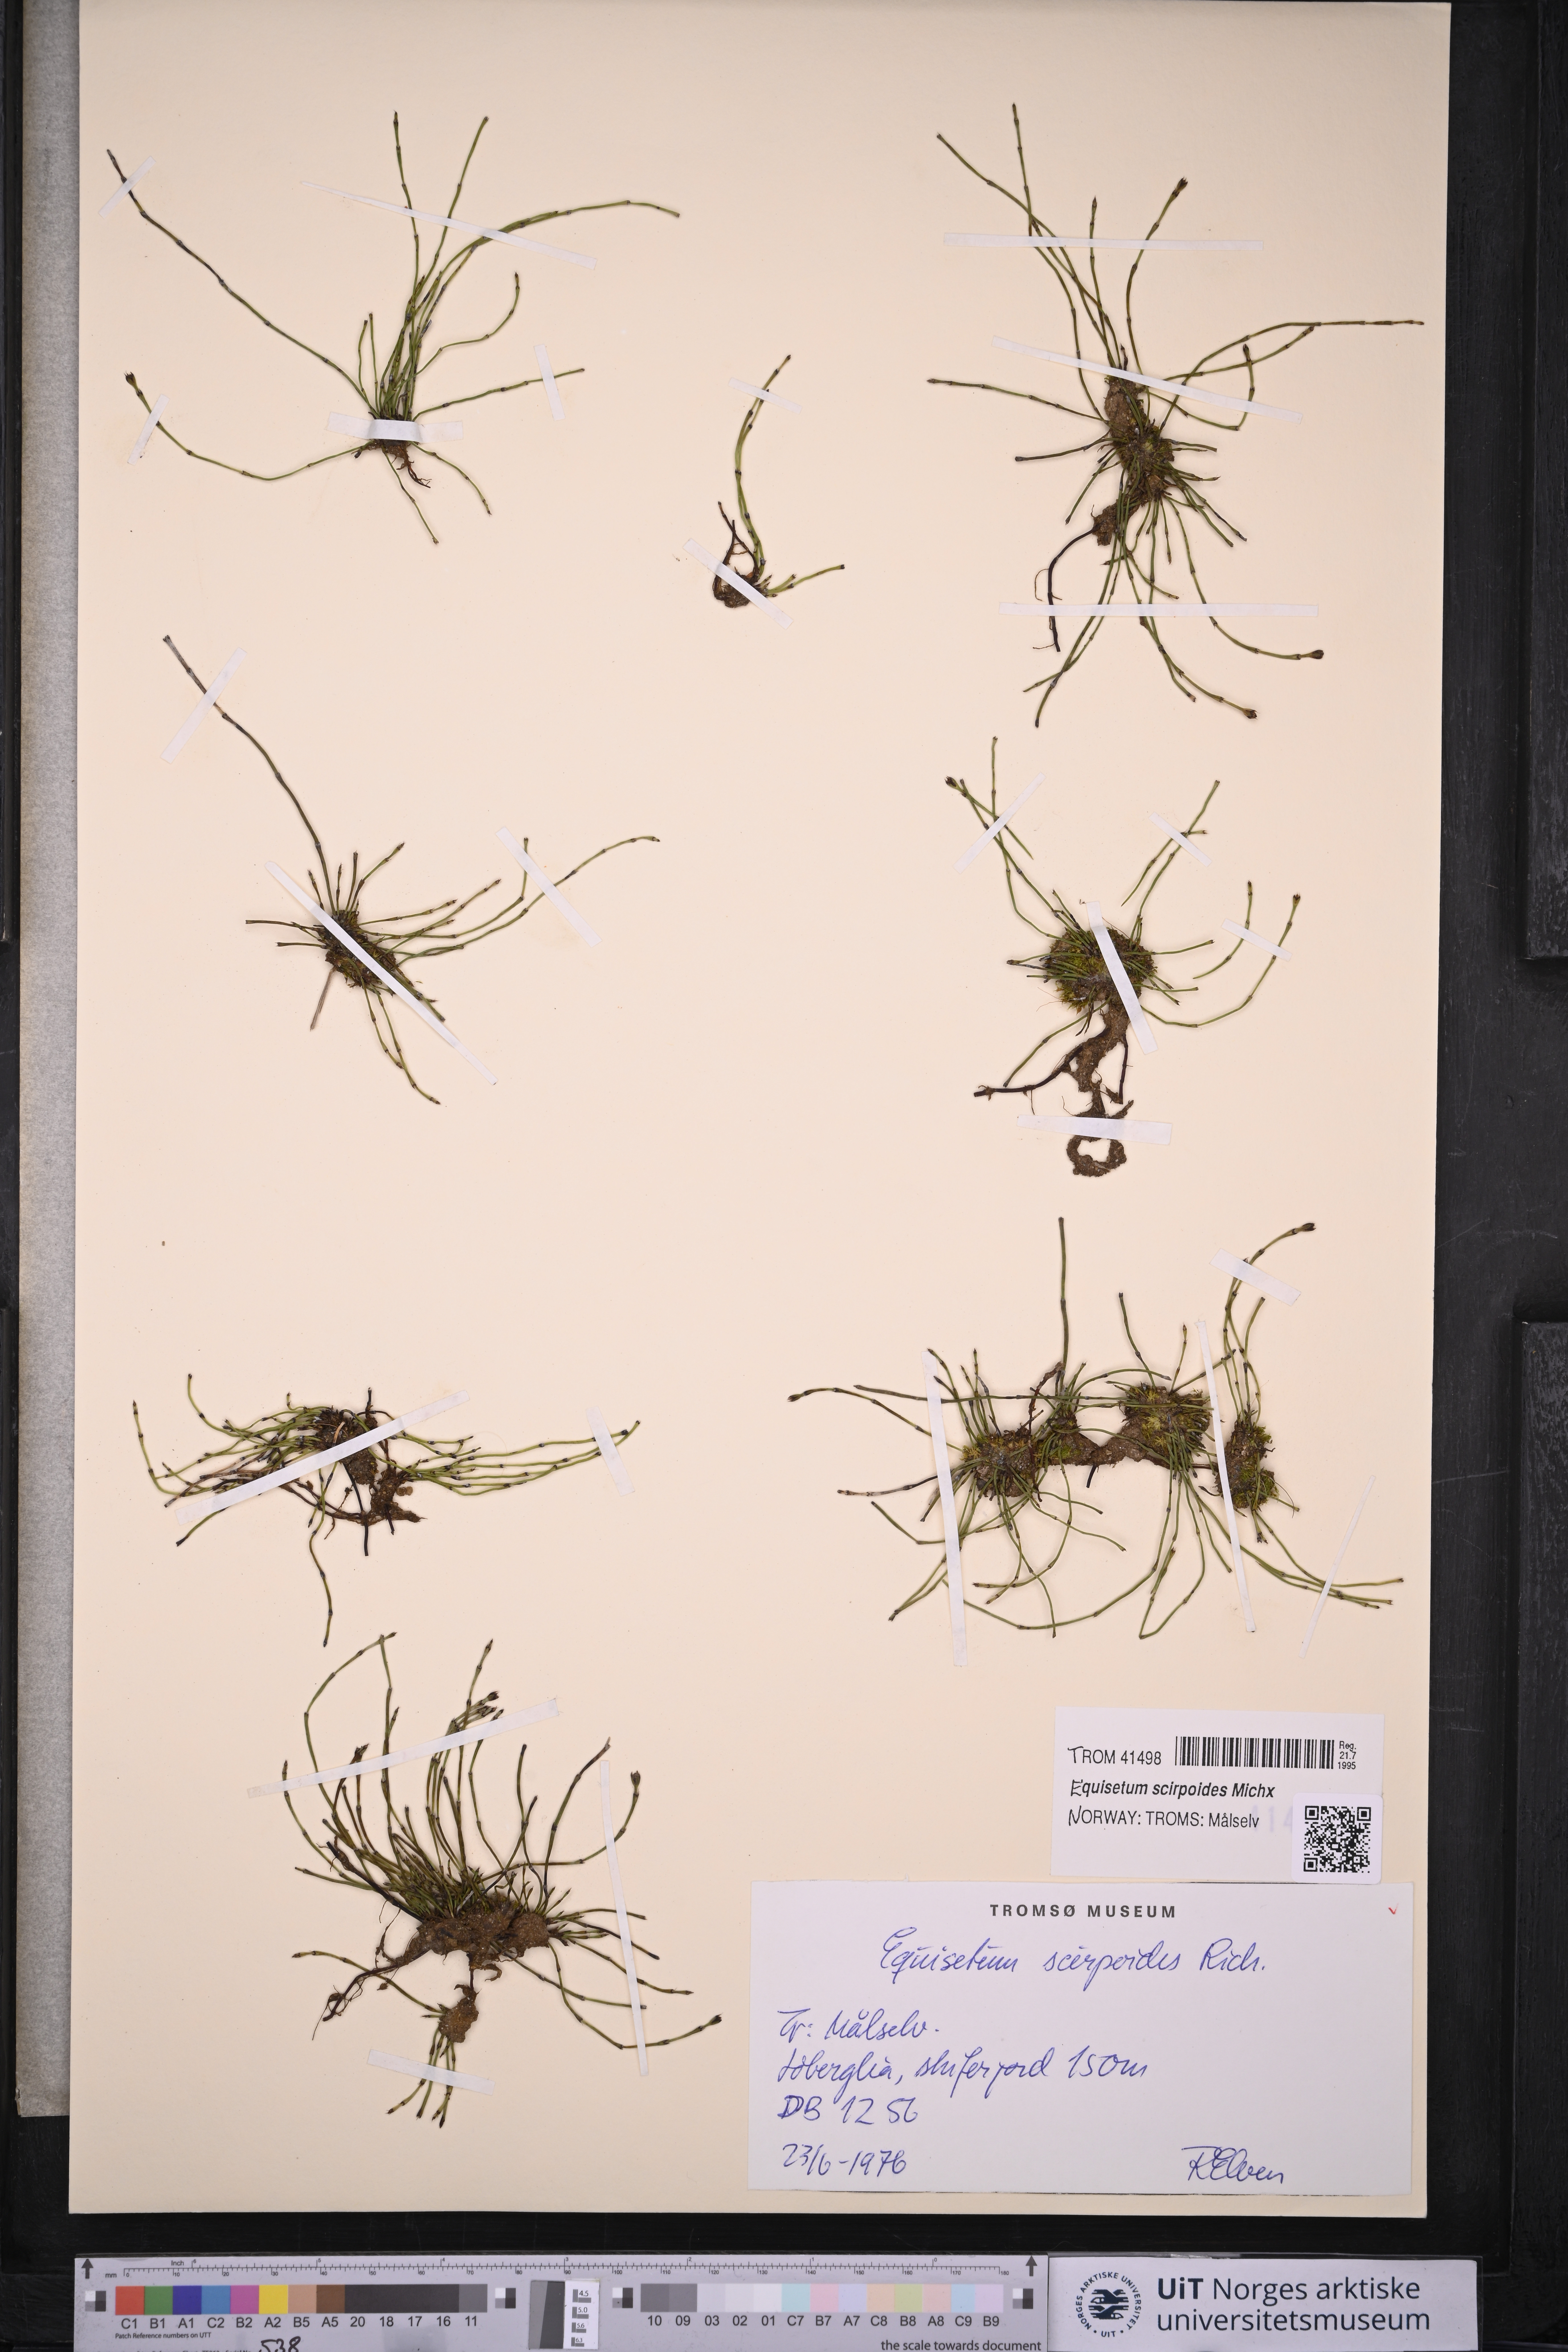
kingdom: Plantae
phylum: Tracheophyta
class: Polypodiopsida
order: Equisetales
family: Equisetaceae
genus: Equisetum
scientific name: Equisetum scirpoides
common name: Delicate horsetail
